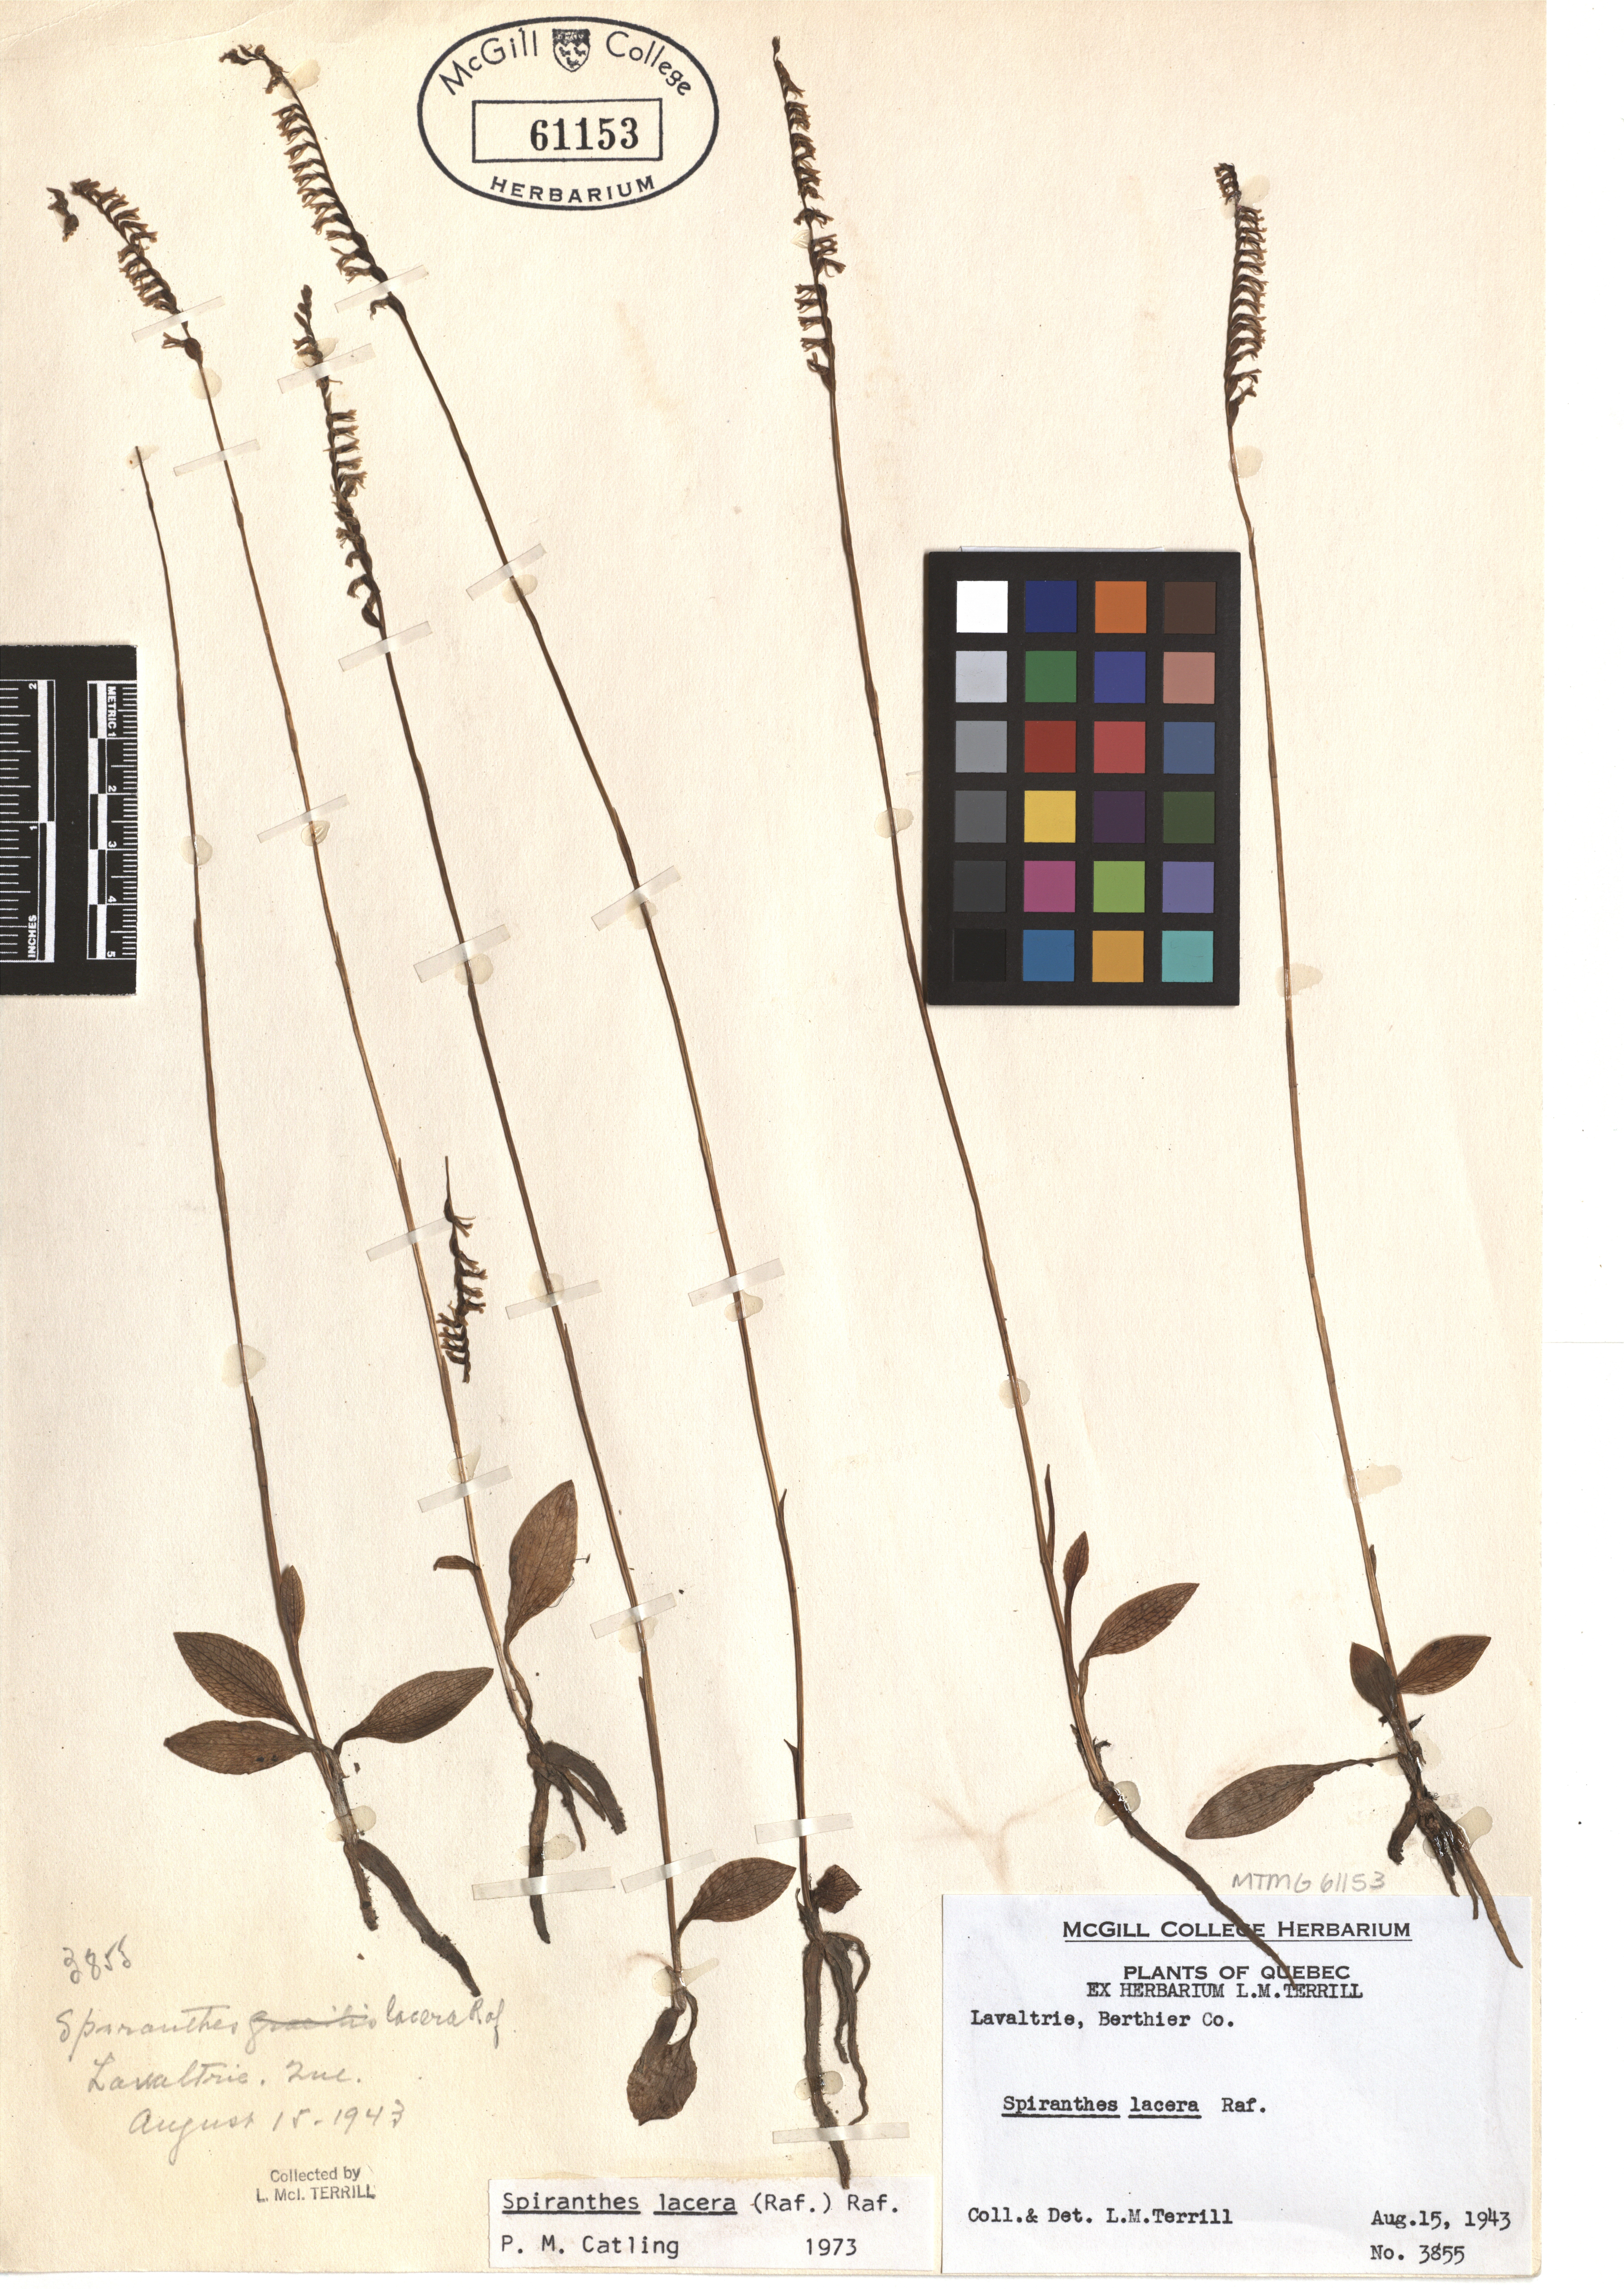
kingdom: Plantae
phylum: Tracheophyta
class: Liliopsida
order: Asparagales
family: Orchidaceae
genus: Spiranthes
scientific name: Spiranthes lacera
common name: Northern slender ladies'-tresses
